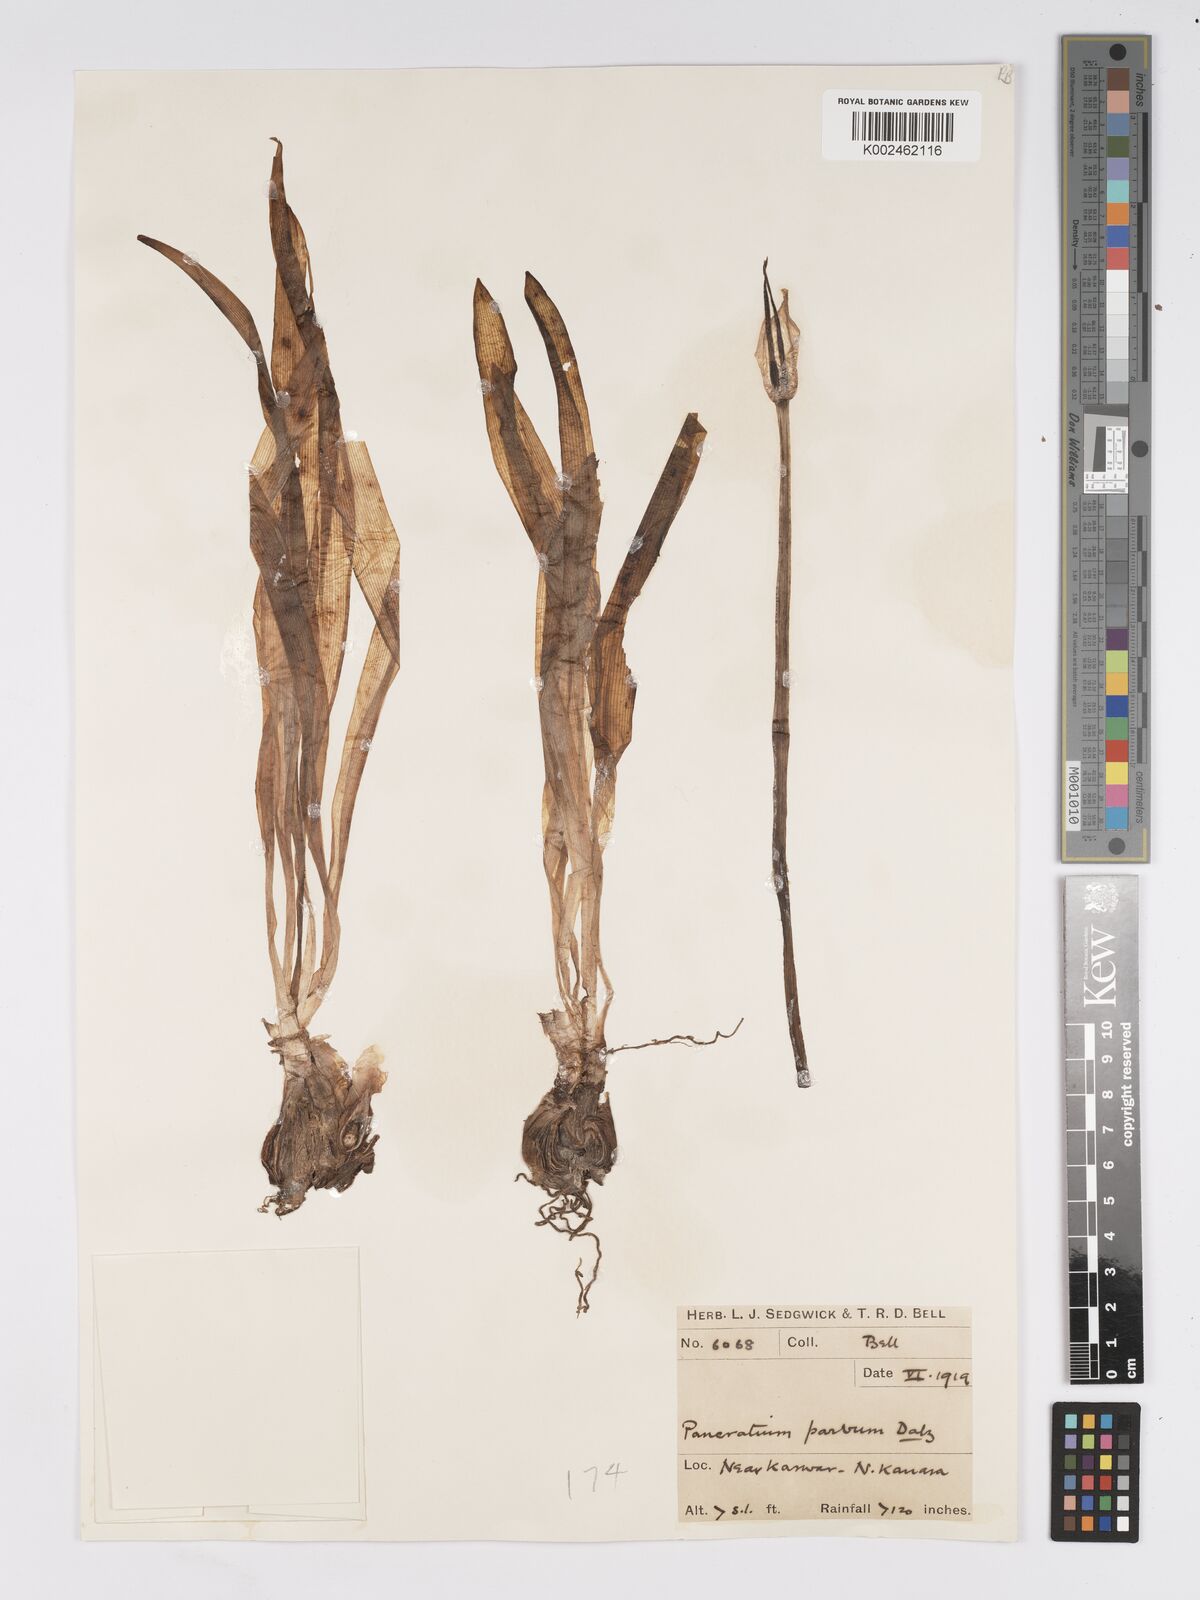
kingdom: Plantae
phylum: Tracheophyta
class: Liliopsida
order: Asparagales
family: Amaryllidaceae
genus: Pancratium
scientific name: Pancratium parvum
